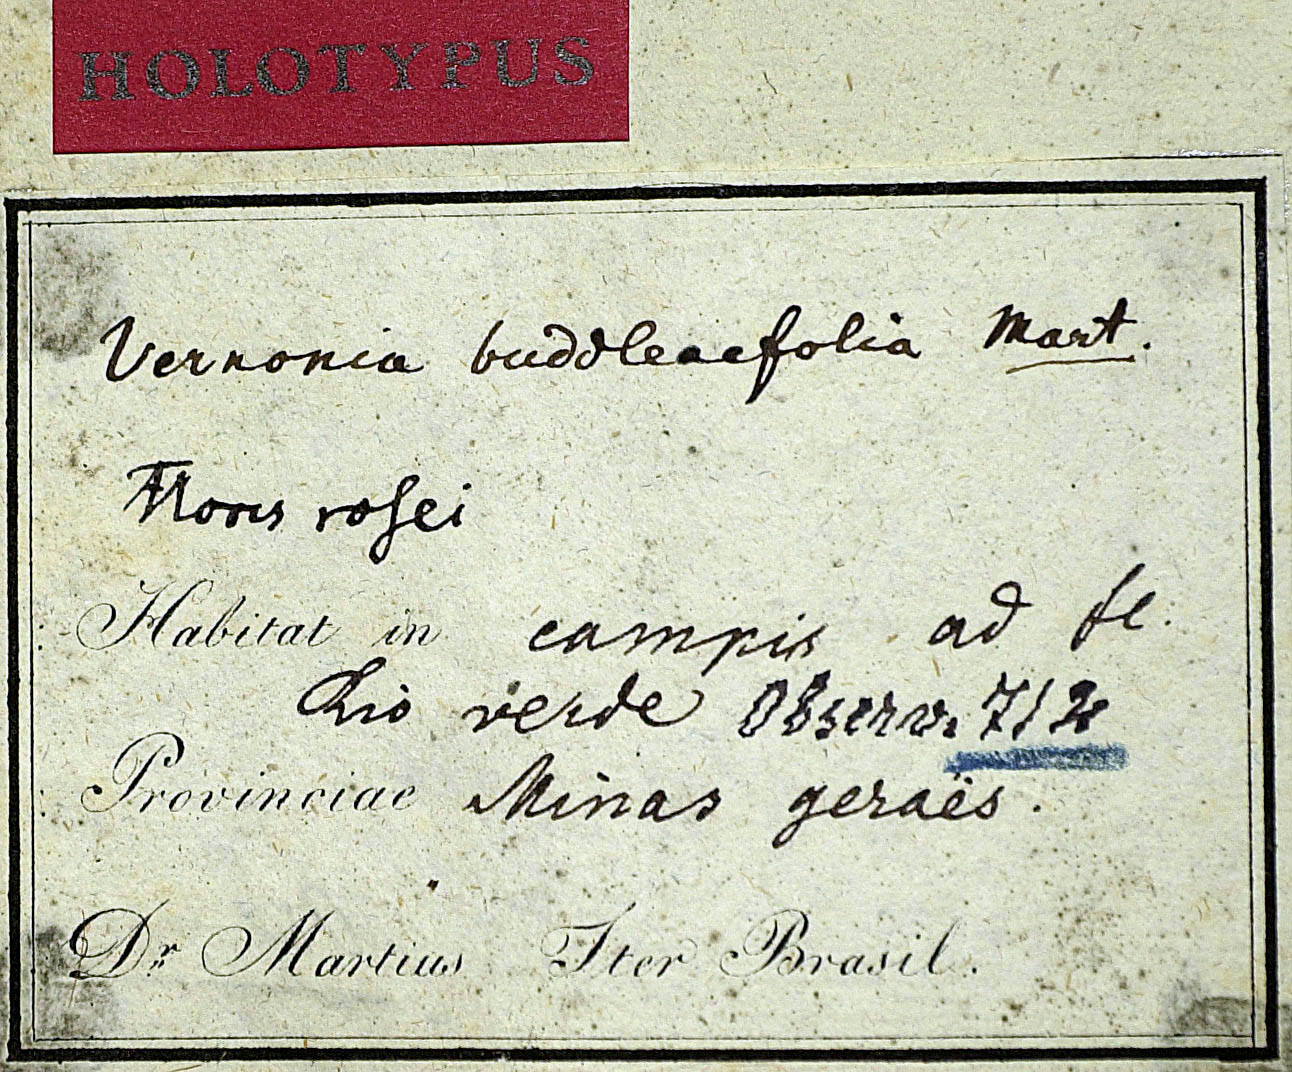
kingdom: Plantae
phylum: Tracheophyta
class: Magnoliopsida
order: Asterales
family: Asteraceae
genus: Lessingianthus
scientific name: Lessingianthus buddlejifolius
